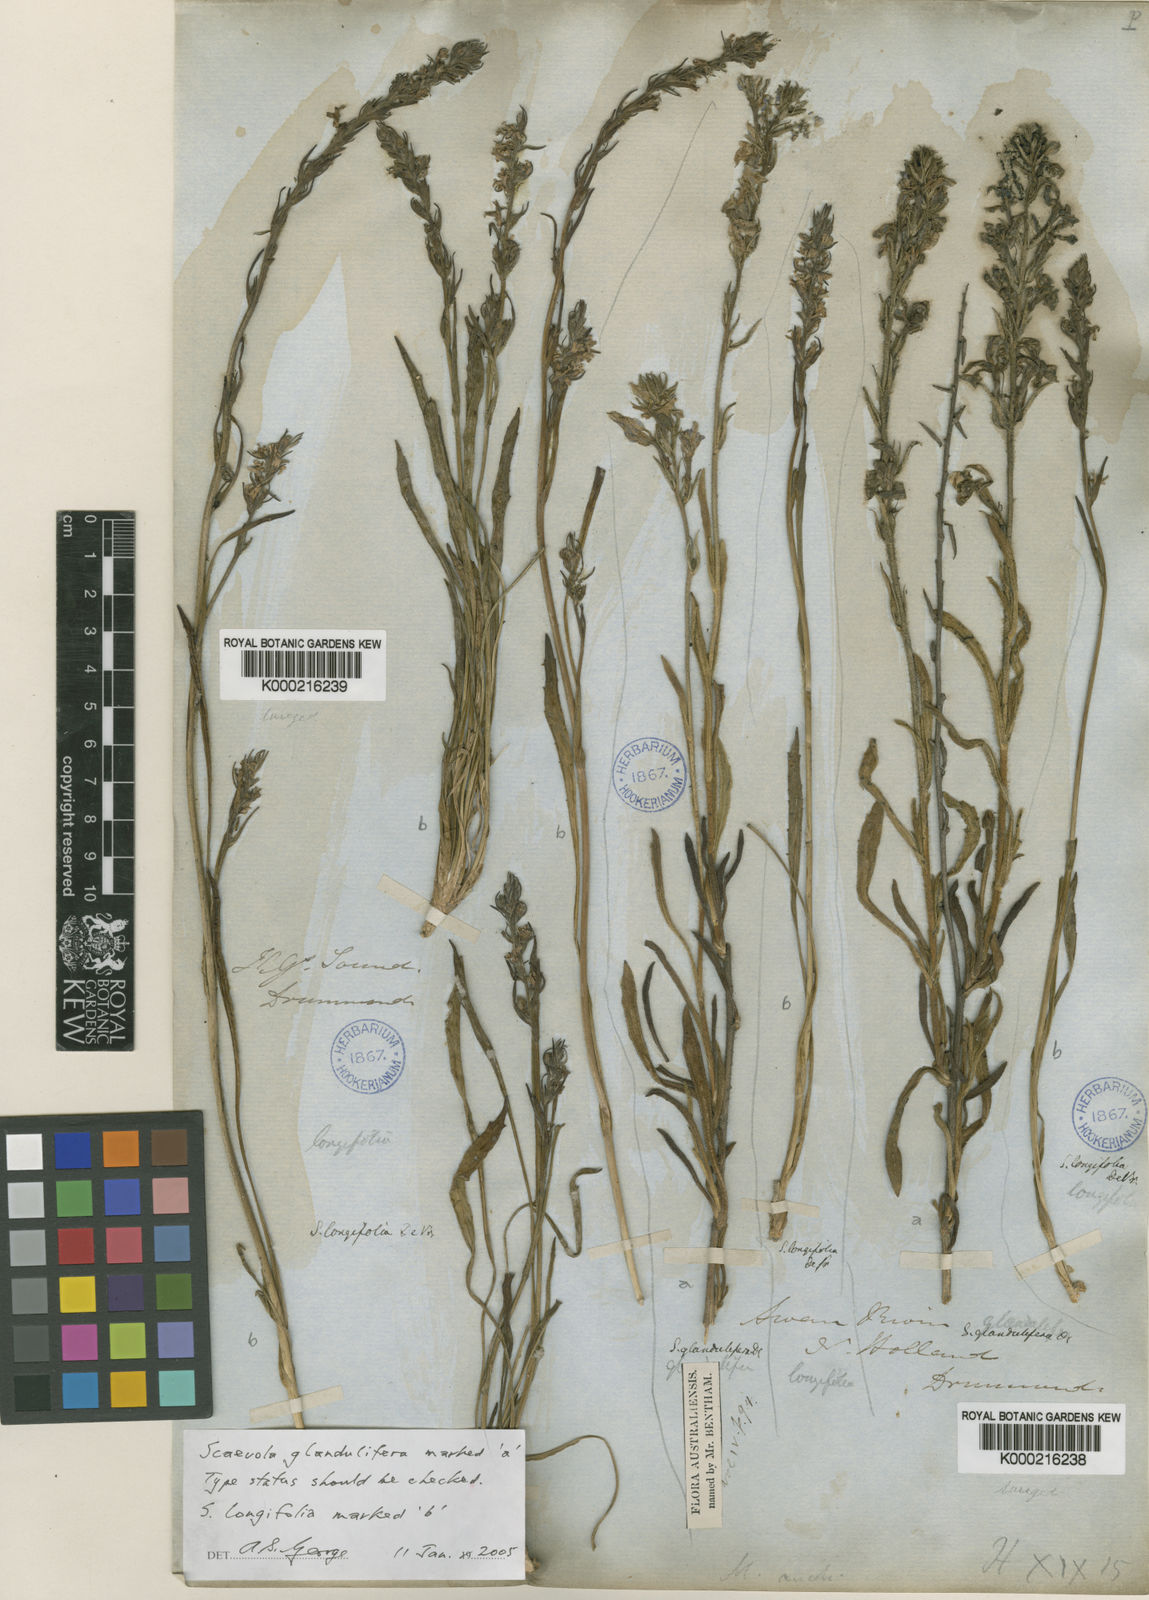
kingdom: Plantae
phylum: Tracheophyta
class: Magnoliopsida
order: Asterales
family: Goodeniaceae
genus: Scaevola
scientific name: Scaevola glandulifera
